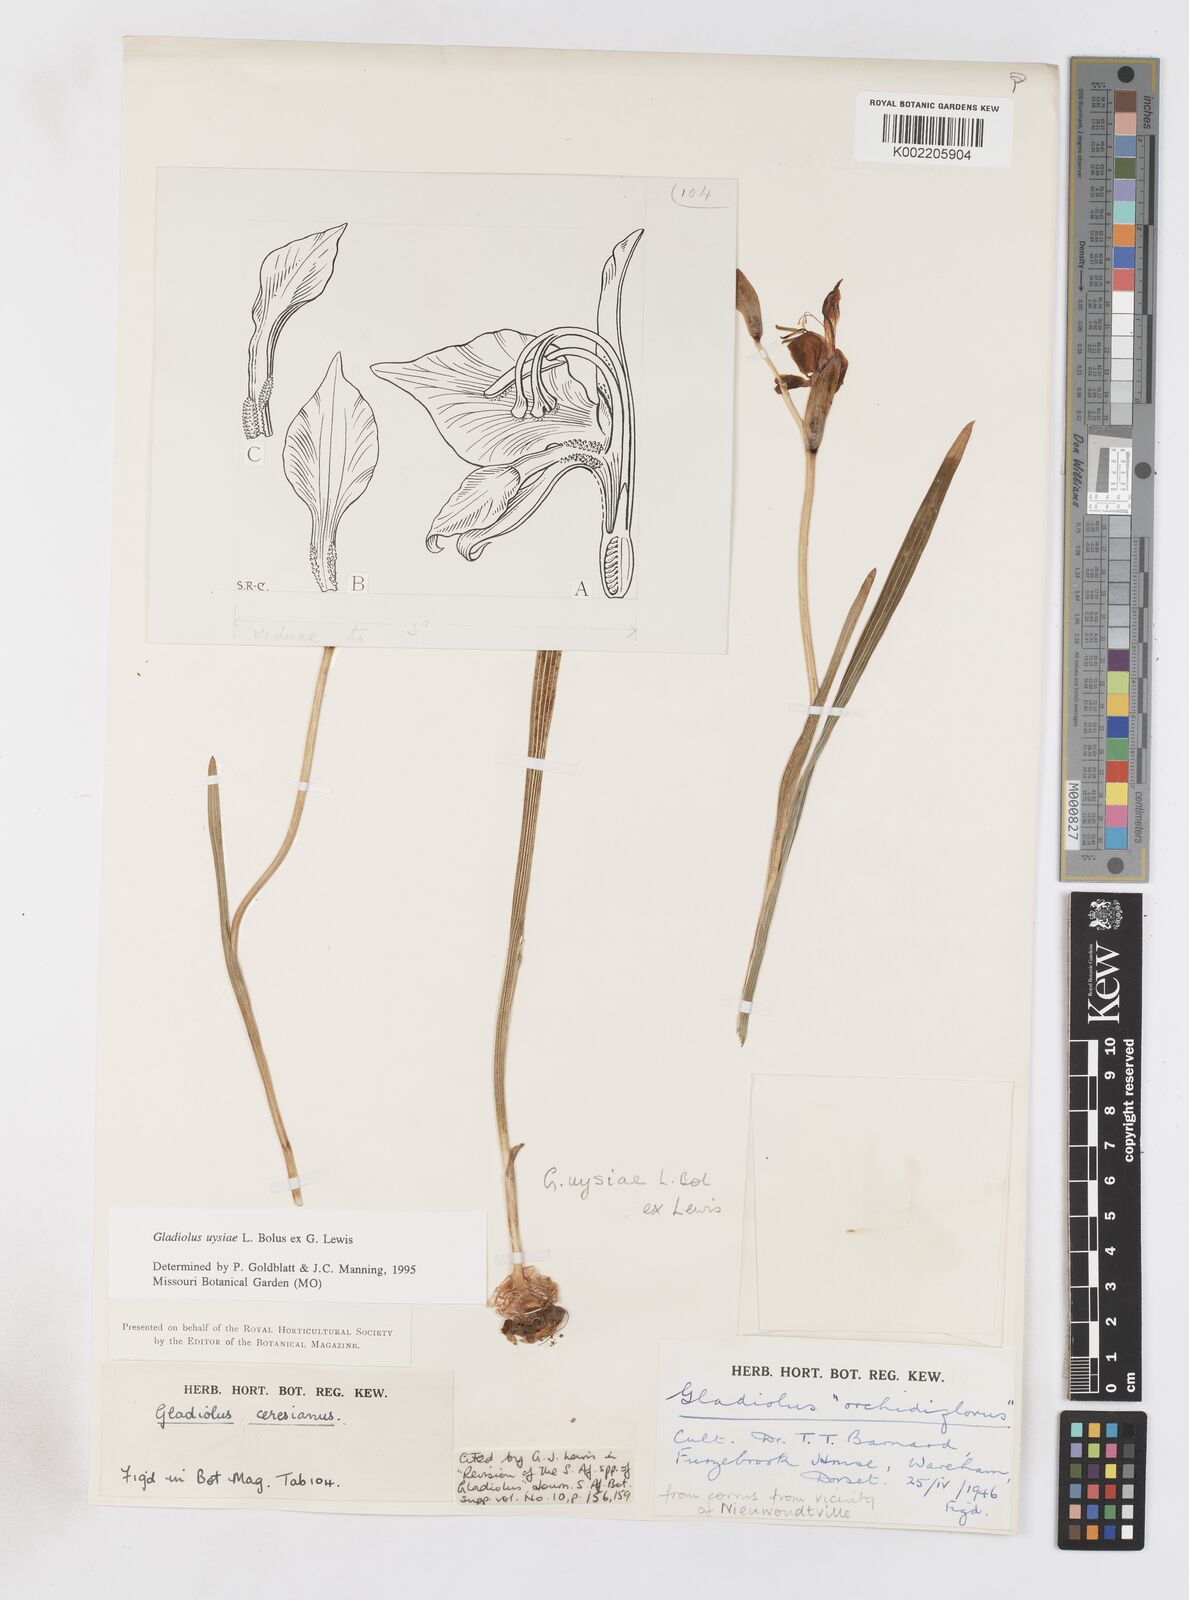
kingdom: Plantae
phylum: Tracheophyta
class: Liliopsida
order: Asparagales
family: Iridaceae
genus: Gladiolus
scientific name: Gladiolus uysiae
